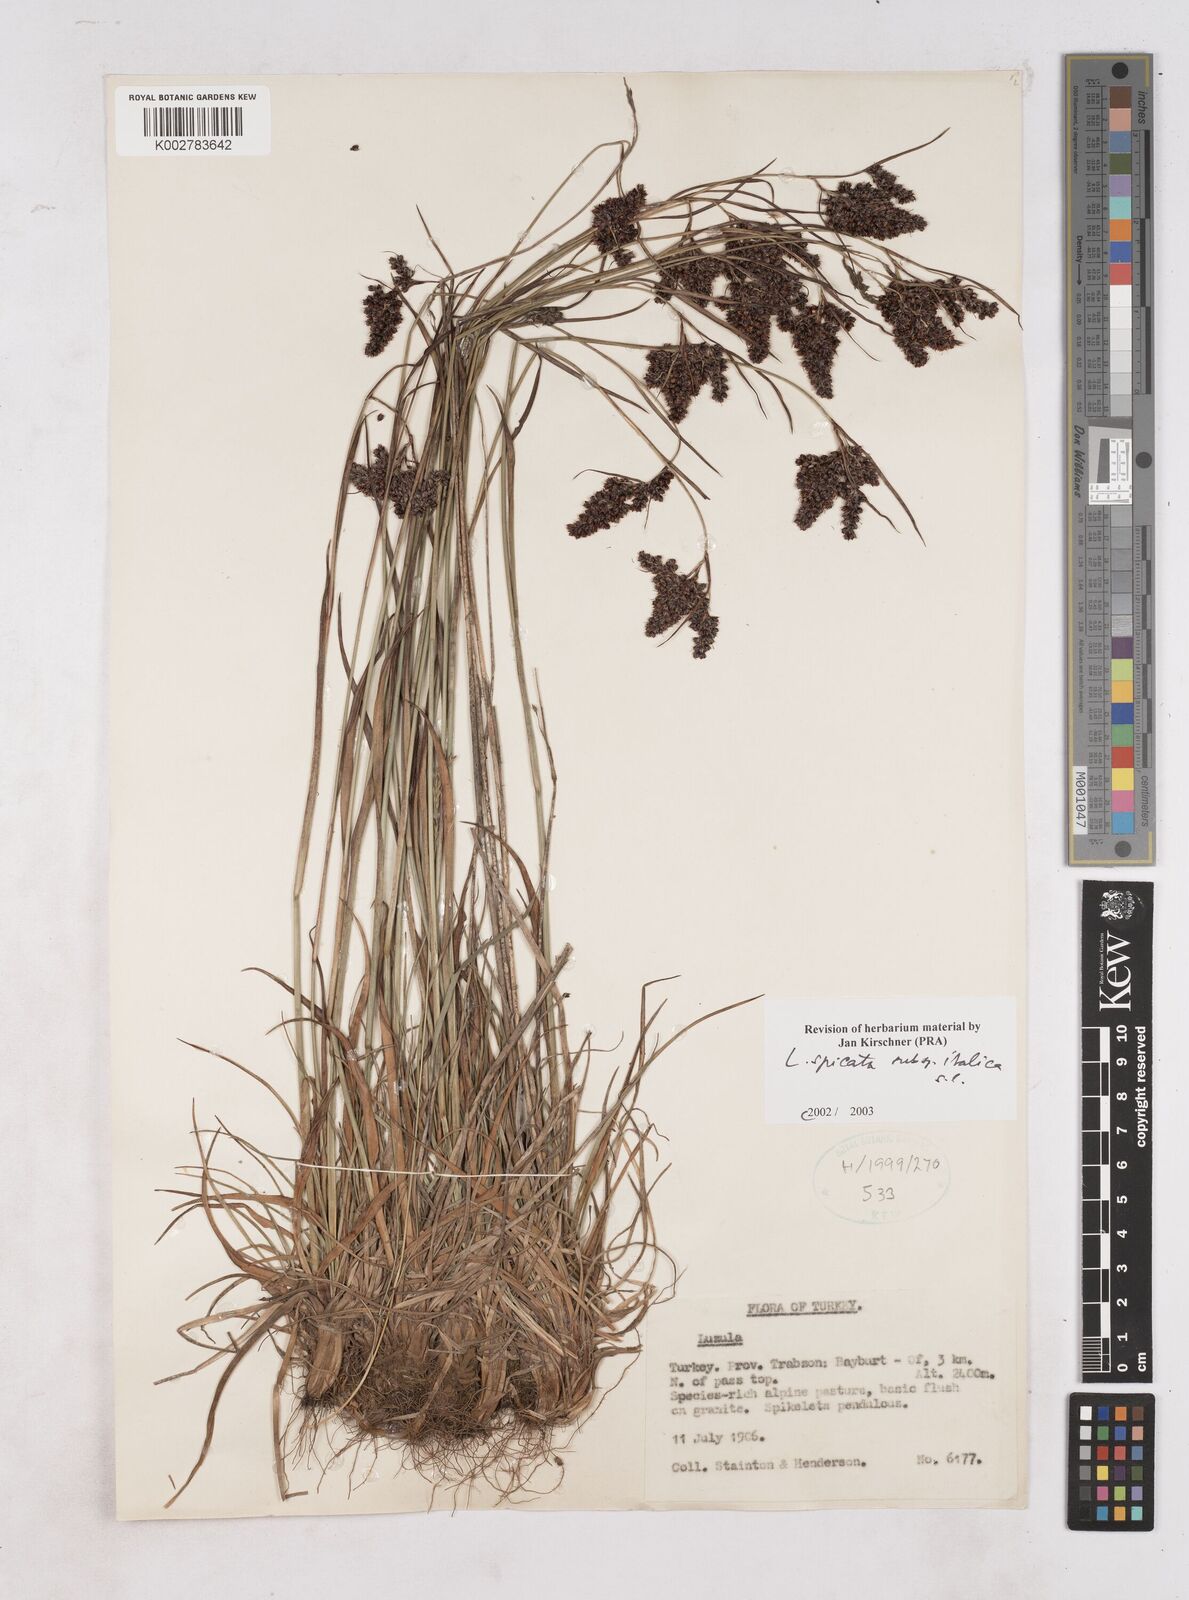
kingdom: Plantae
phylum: Tracheophyta
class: Liliopsida
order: Poales
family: Juncaceae
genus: Luzula
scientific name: Luzula spicata
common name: Spiked wood-rush
